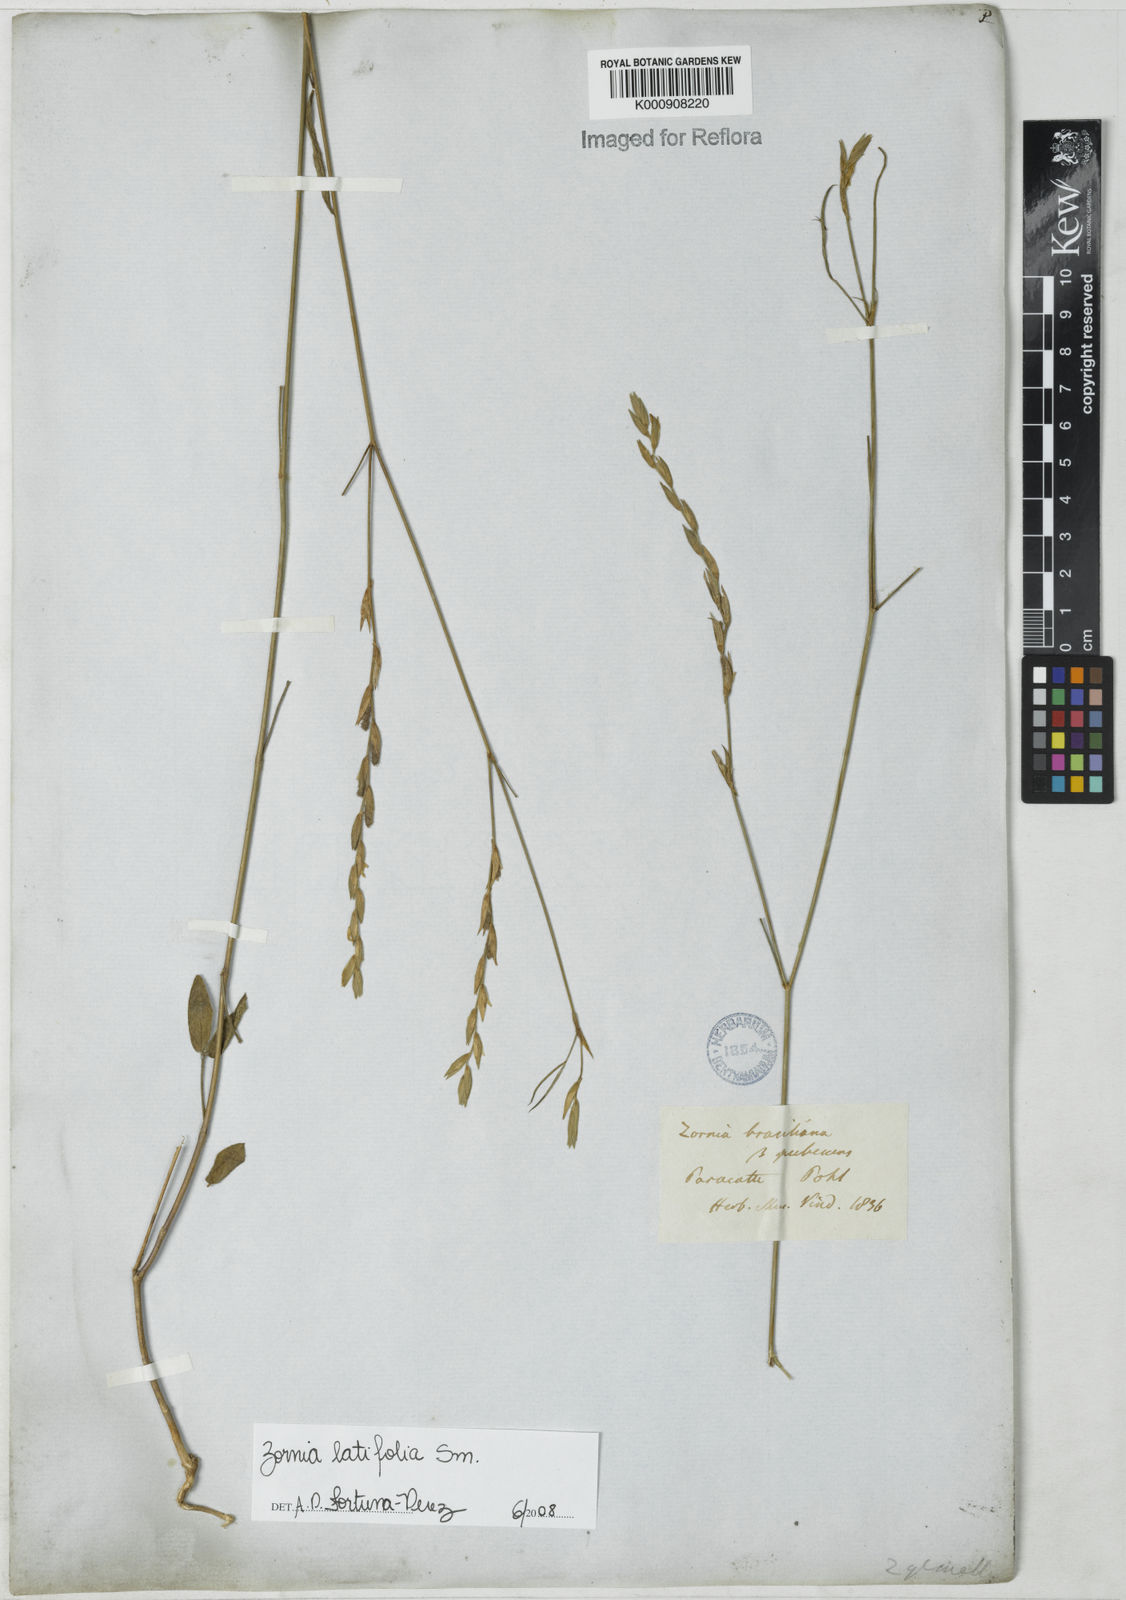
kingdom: Plantae
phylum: Tracheophyta
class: Magnoliopsida
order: Fabales
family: Fabaceae
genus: Zornia
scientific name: Zornia latifolia
